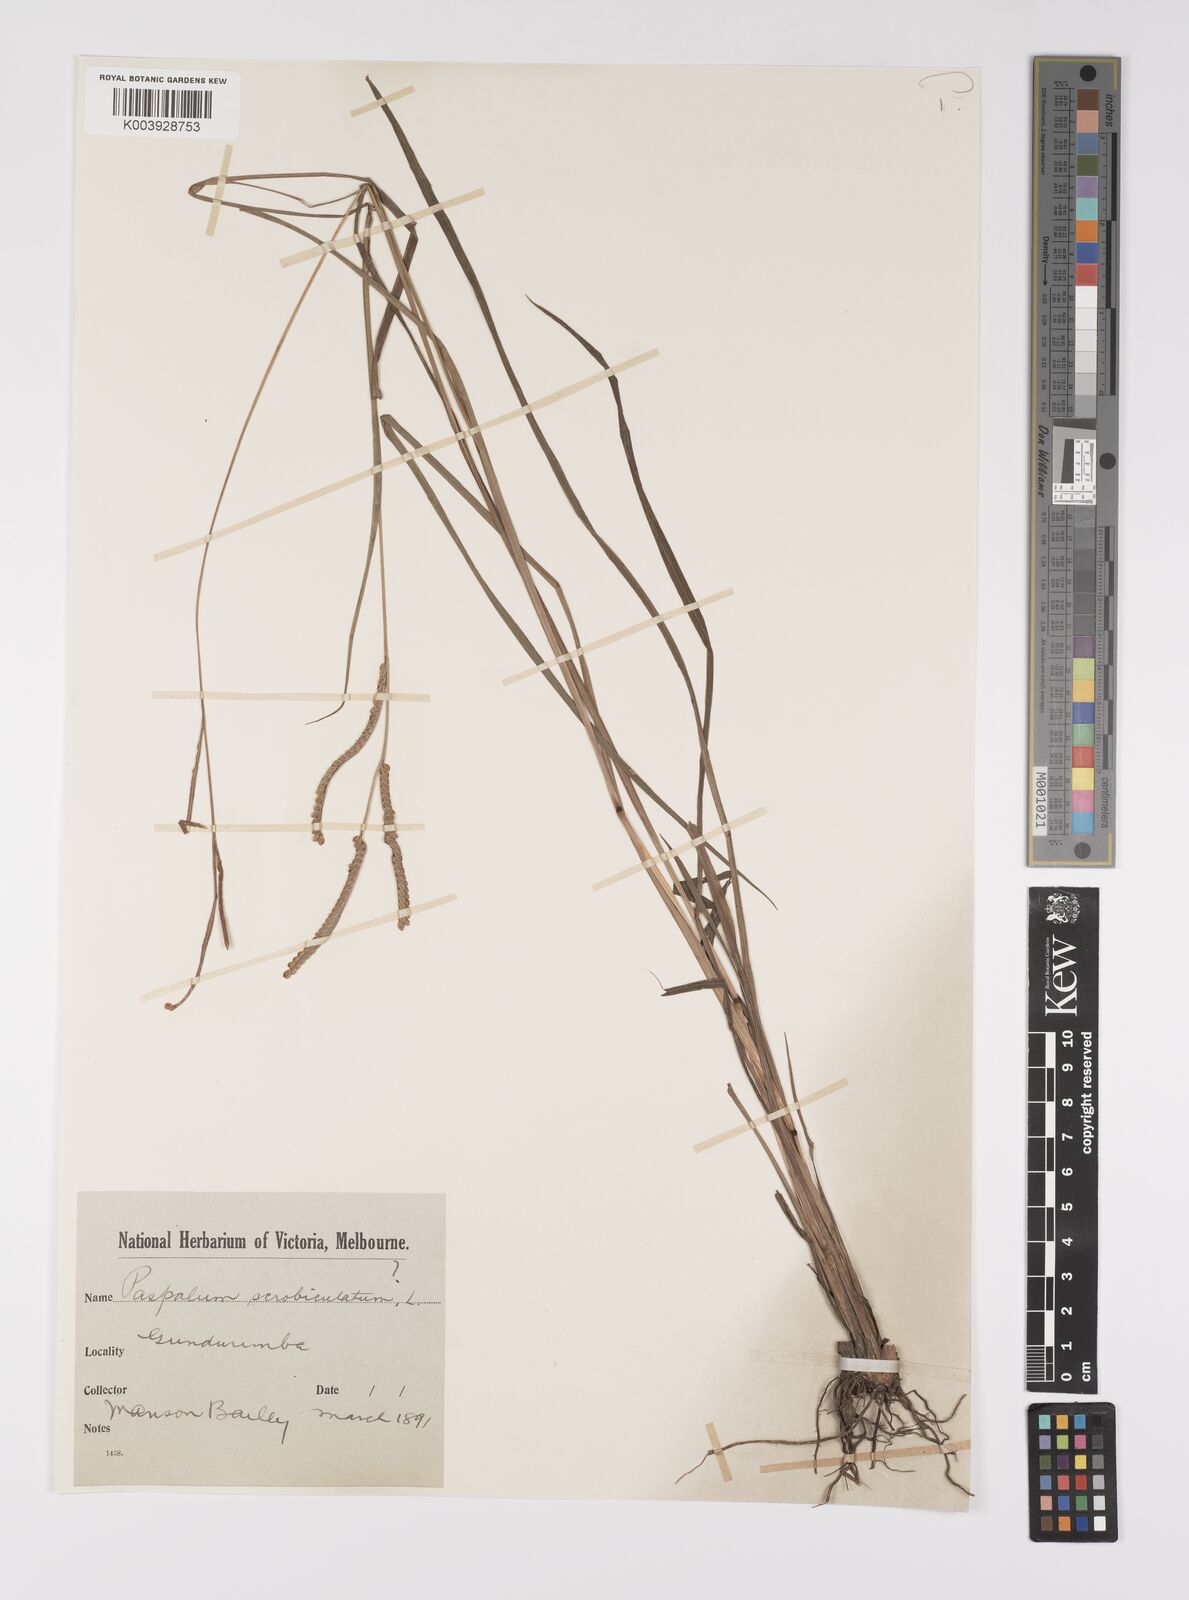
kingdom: Plantae
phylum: Tracheophyta
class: Liliopsida
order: Poales
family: Poaceae
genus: Paspalum
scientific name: Paspalum scrobiculatum
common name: Kodo millet
